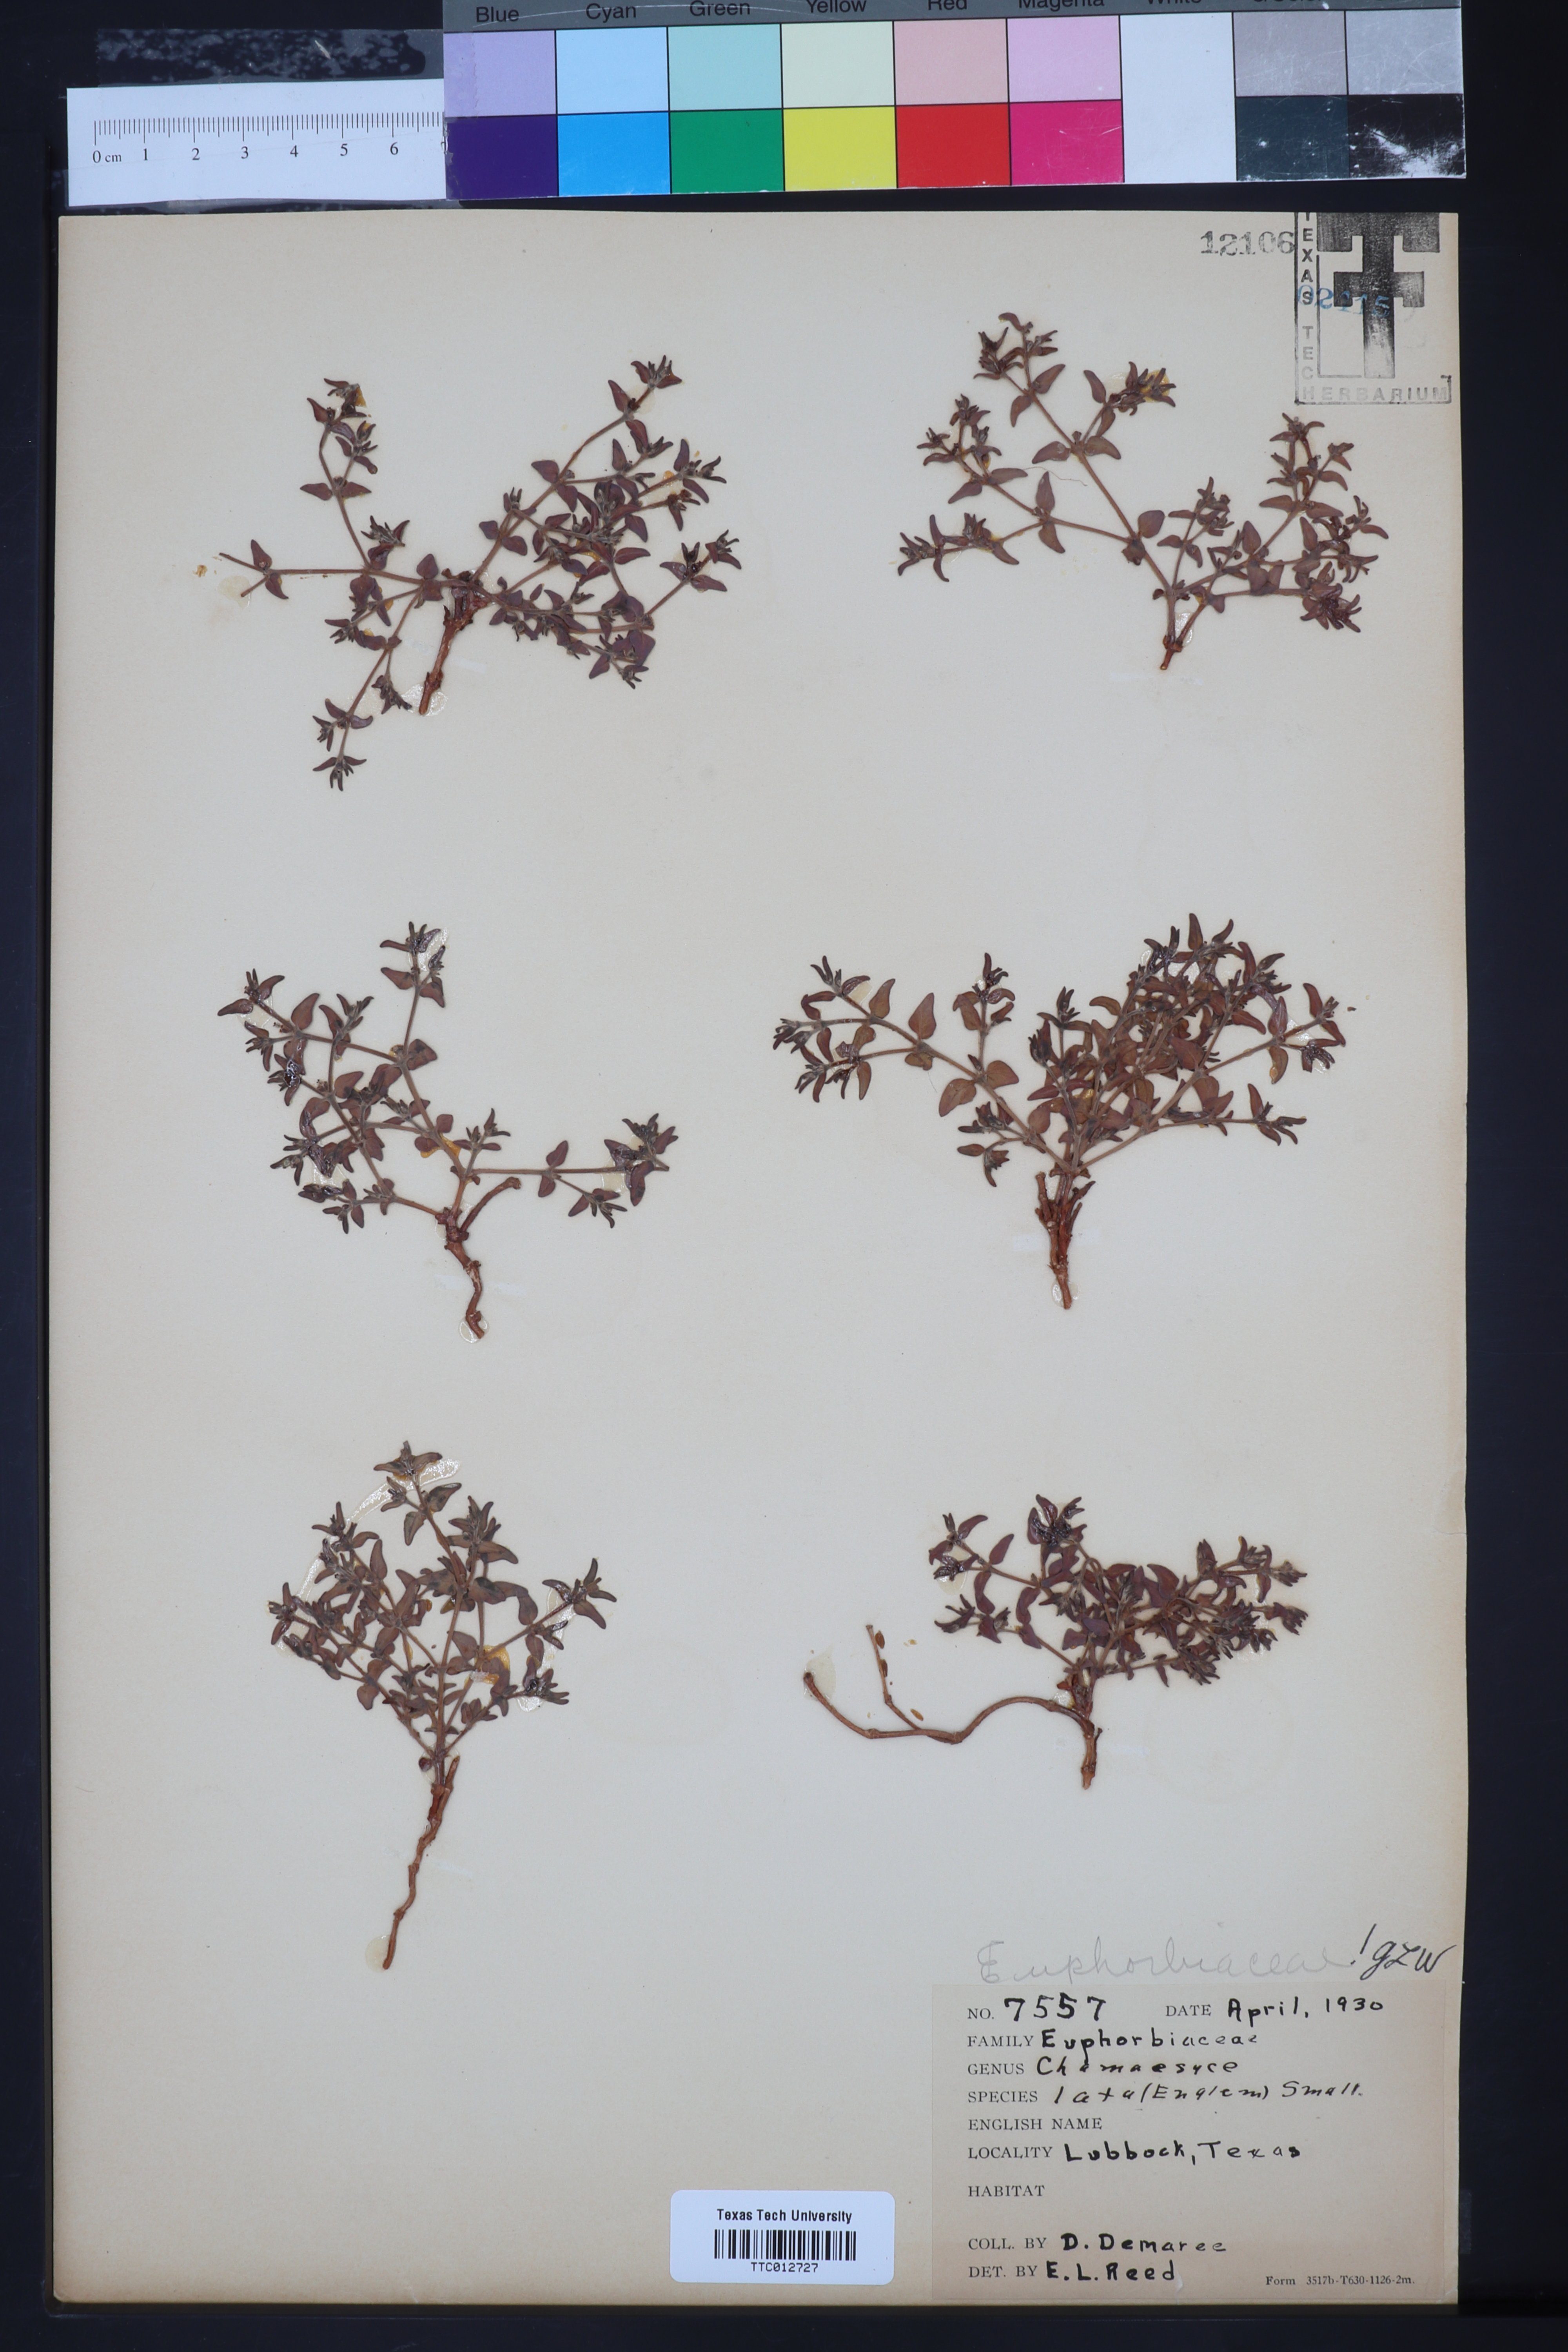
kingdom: Plantae
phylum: Tracheophyta
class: Magnoliopsida
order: Malpighiales
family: Euphorbiaceae
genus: Euphorbia
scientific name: Euphorbia lata
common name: Hoary euphorbia
